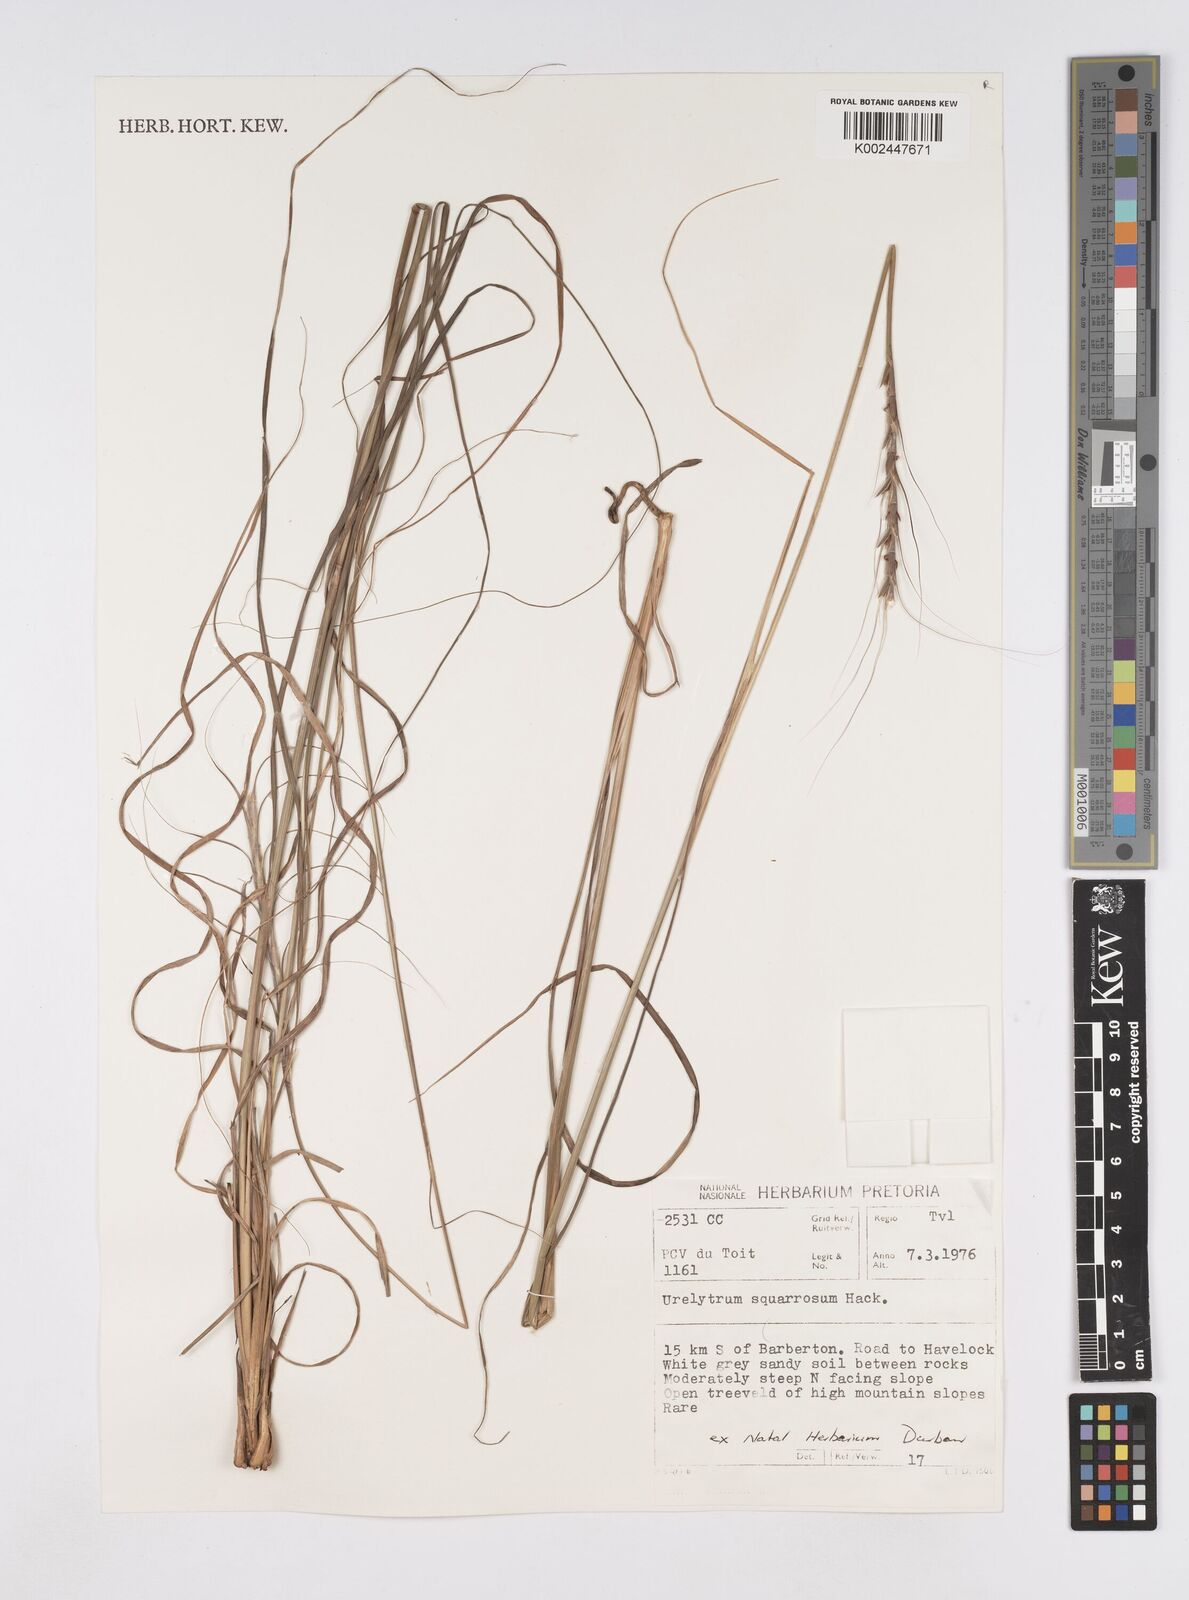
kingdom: Plantae
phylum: Tracheophyta
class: Liliopsida
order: Poales
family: Poaceae
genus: Urelytrum
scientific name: Urelytrum agropyroides
